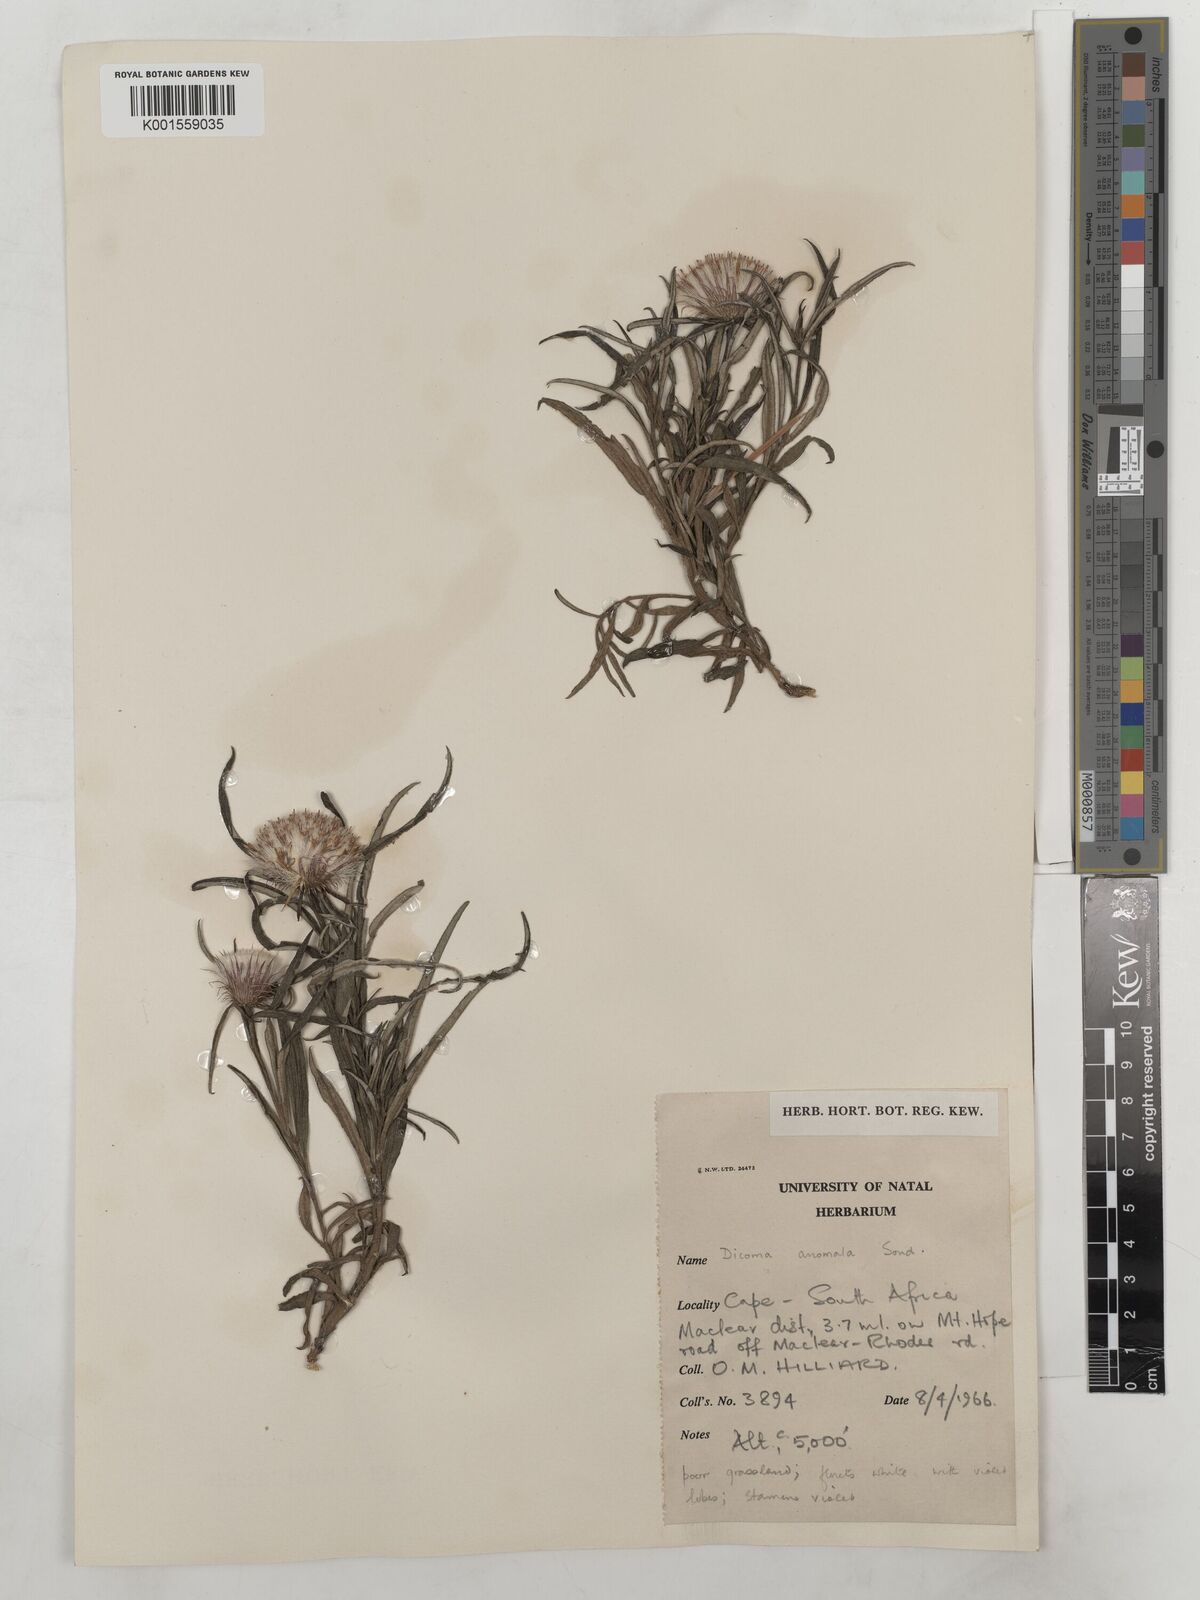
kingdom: Plantae
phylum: Tracheophyta
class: Magnoliopsida
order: Asterales
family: Asteraceae
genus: Dicoma
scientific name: Dicoma anomala
